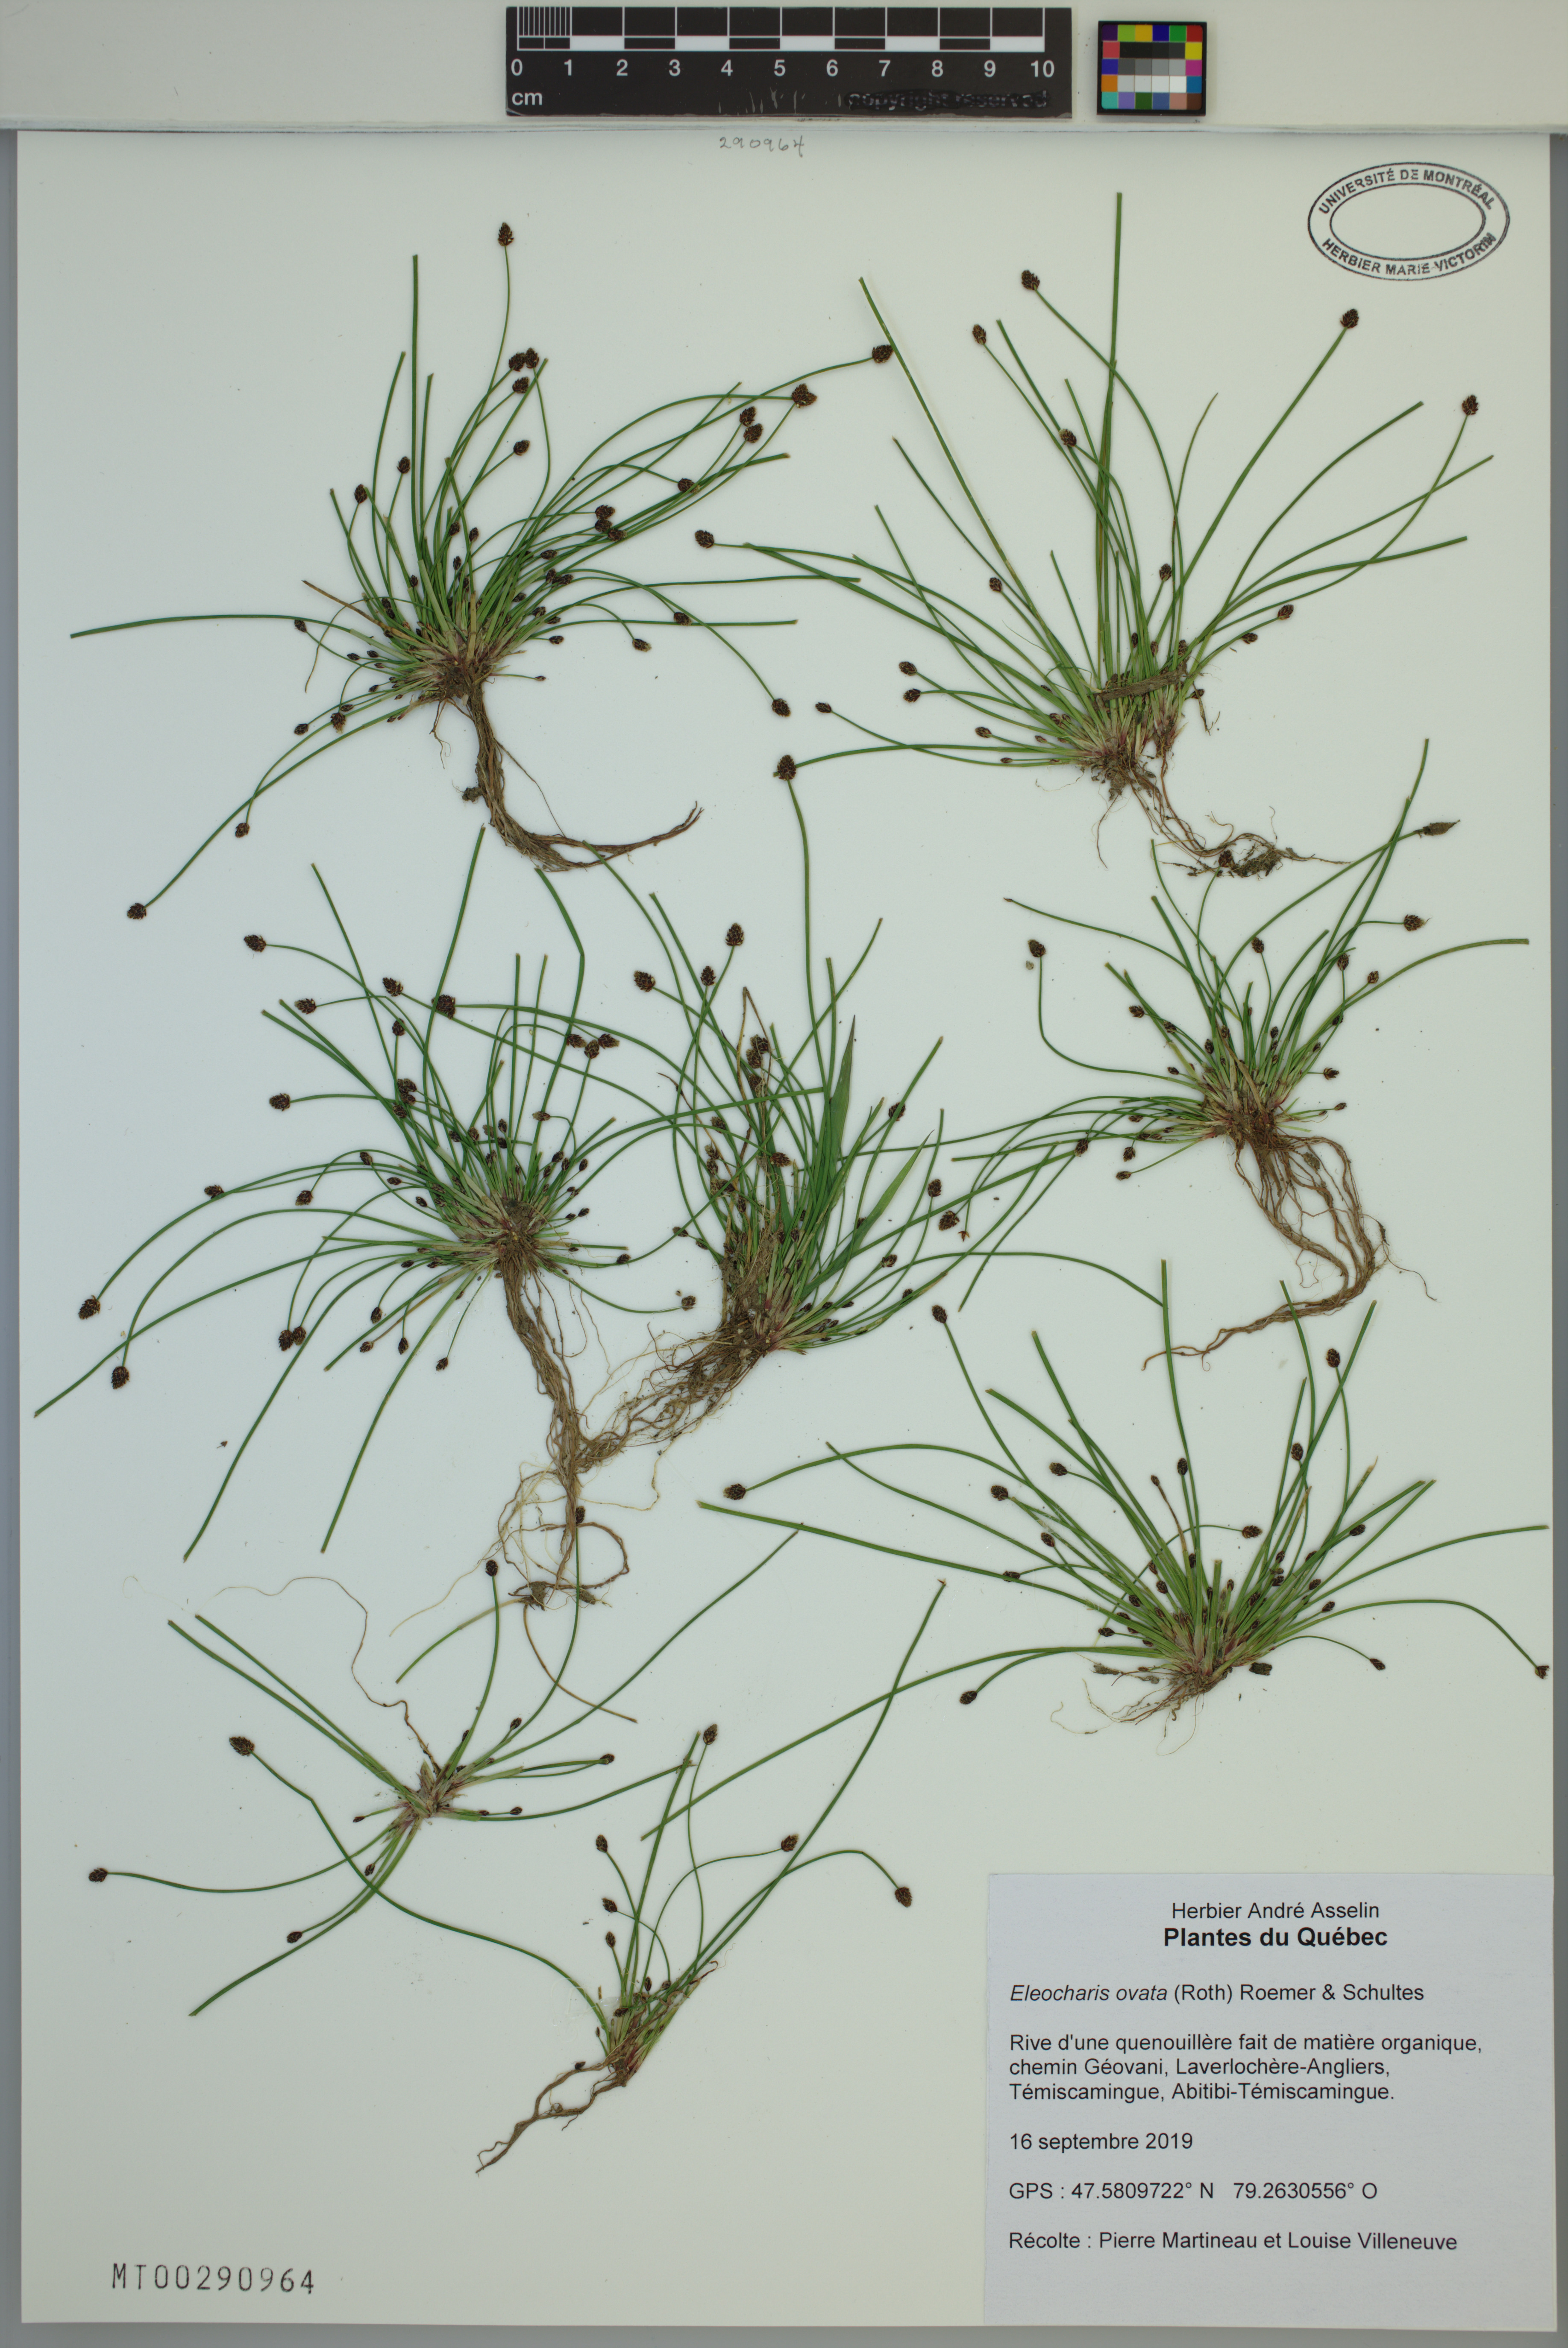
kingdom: Plantae
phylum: Tracheophyta
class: Liliopsida
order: Poales
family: Cyperaceae
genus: Eleocharis
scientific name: Eleocharis ovata
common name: Oval spike-rush
